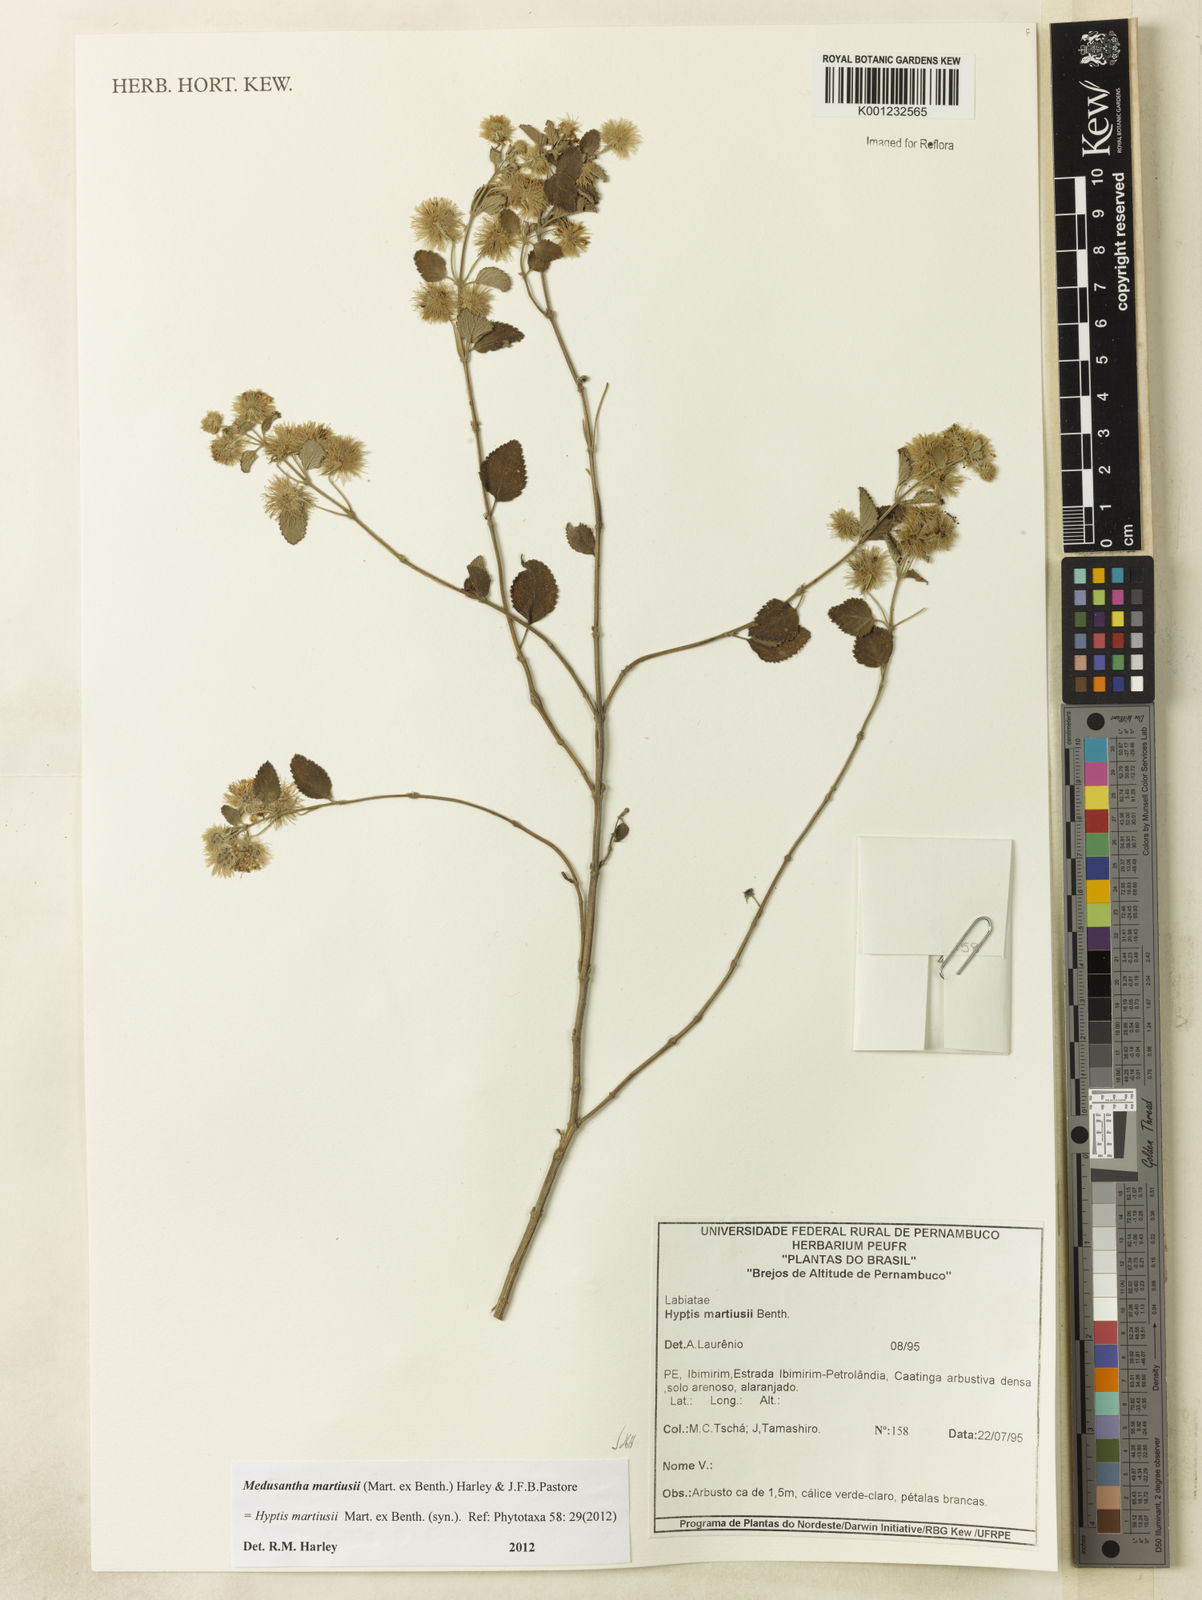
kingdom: Plantae
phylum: Tracheophyta
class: Magnoliopsida
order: Lamiales
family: Lamiaceae
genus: Medusantha
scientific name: Medusantha martiusii
